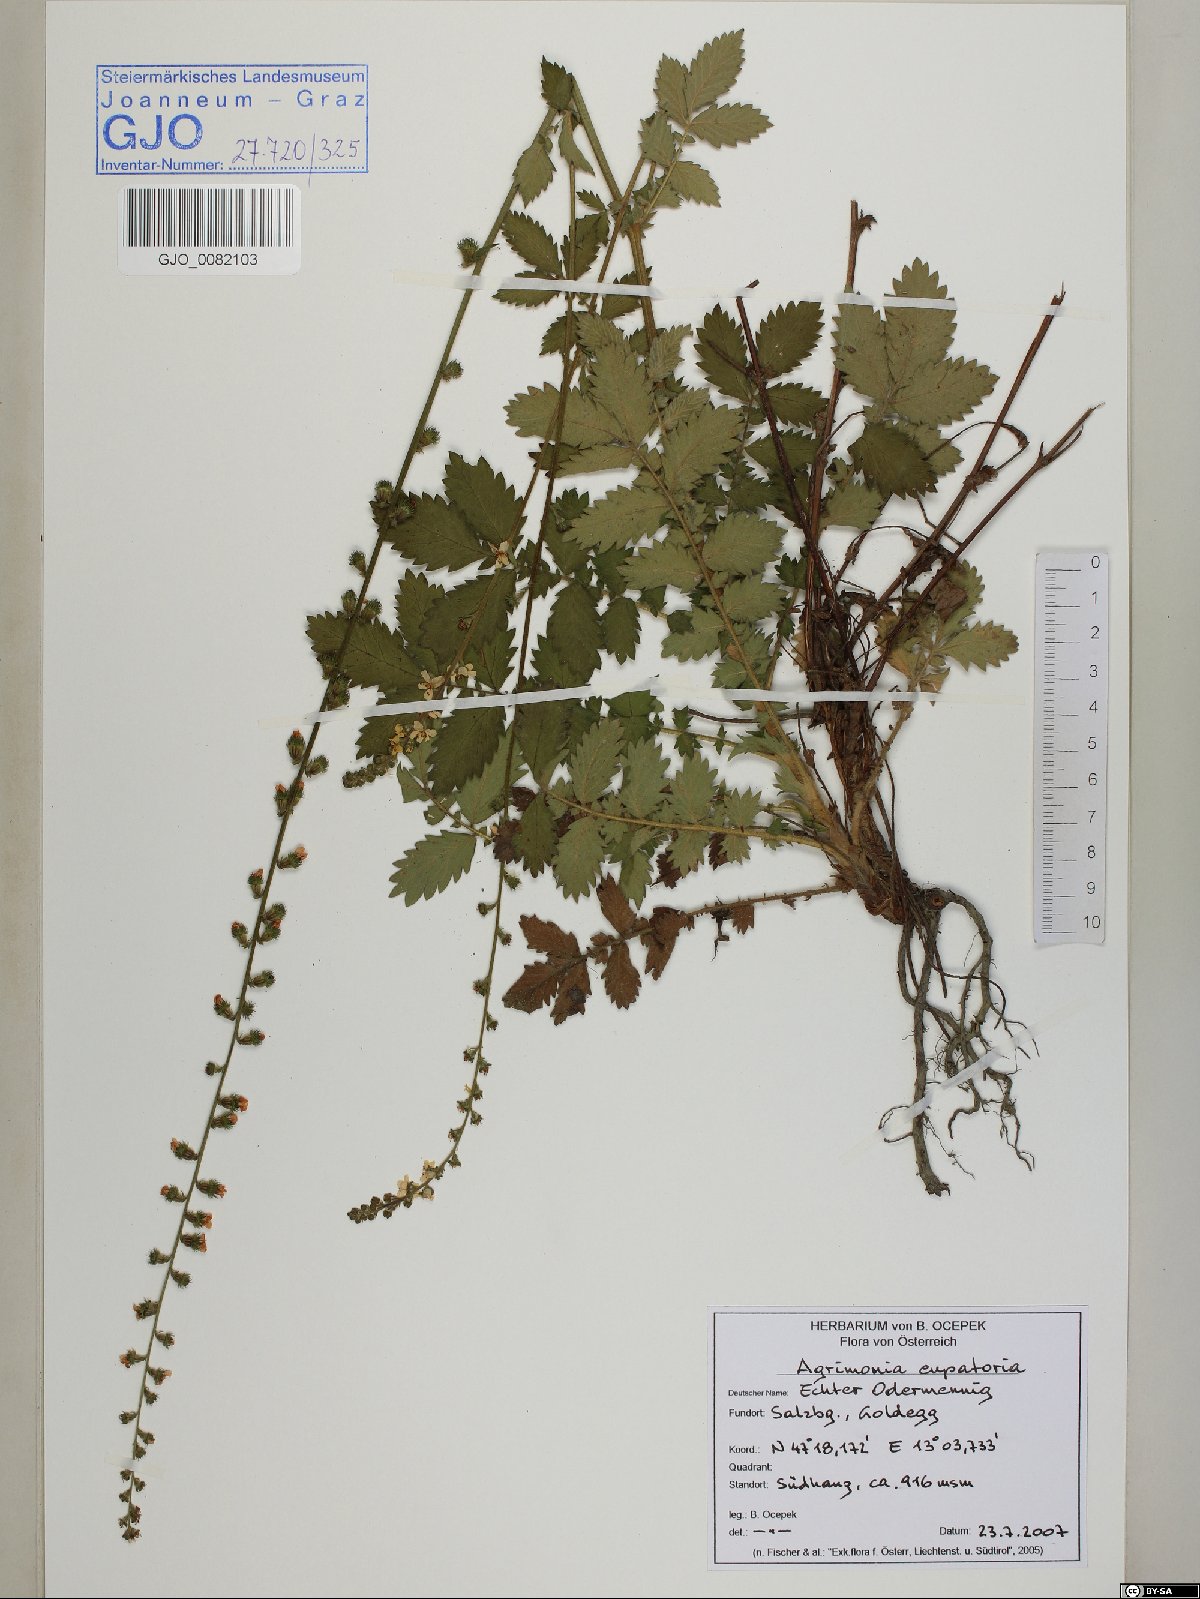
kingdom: Plantae
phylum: Tracheophyta
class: Magnoliopsida
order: Rosales
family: Rosaceae
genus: Agrimonia
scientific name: Agrimonia eupatoria
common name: Agrimony
